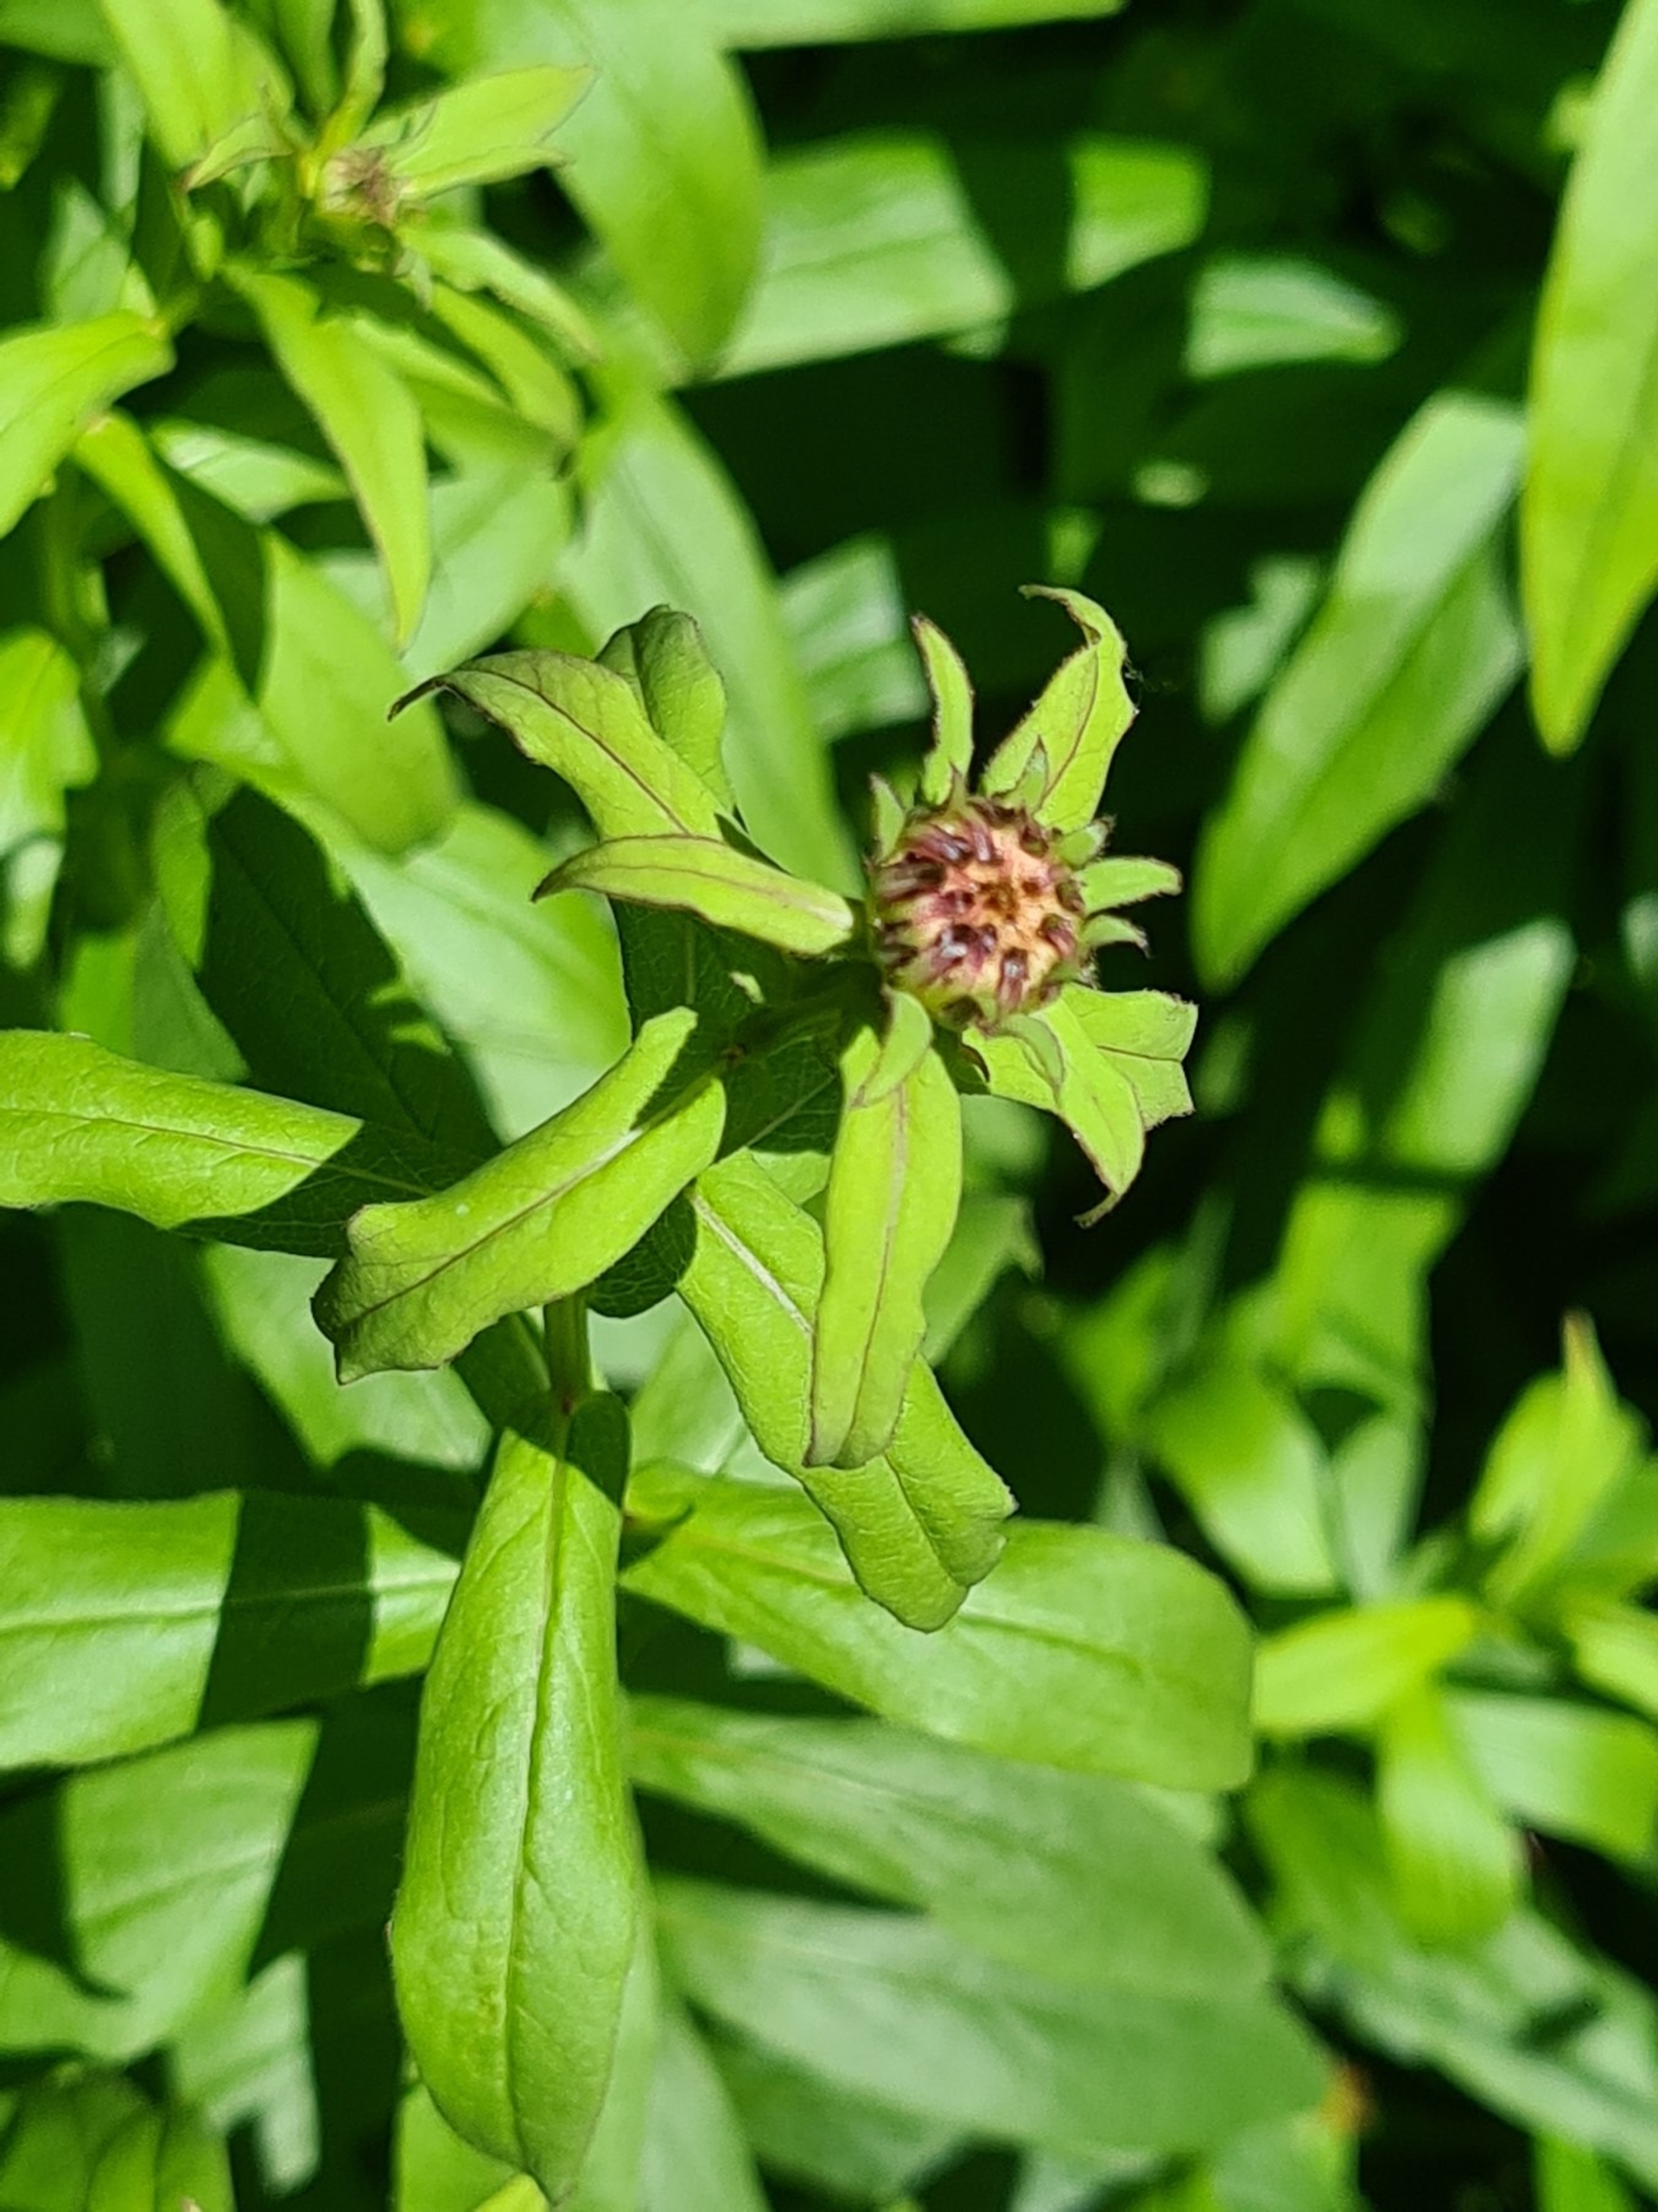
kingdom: Plantae
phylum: Tracheophyta
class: Magnoliopsida
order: Asterales
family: Asteraceae
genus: Pentanema
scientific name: Pentanema salicinum
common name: Pile-alant
